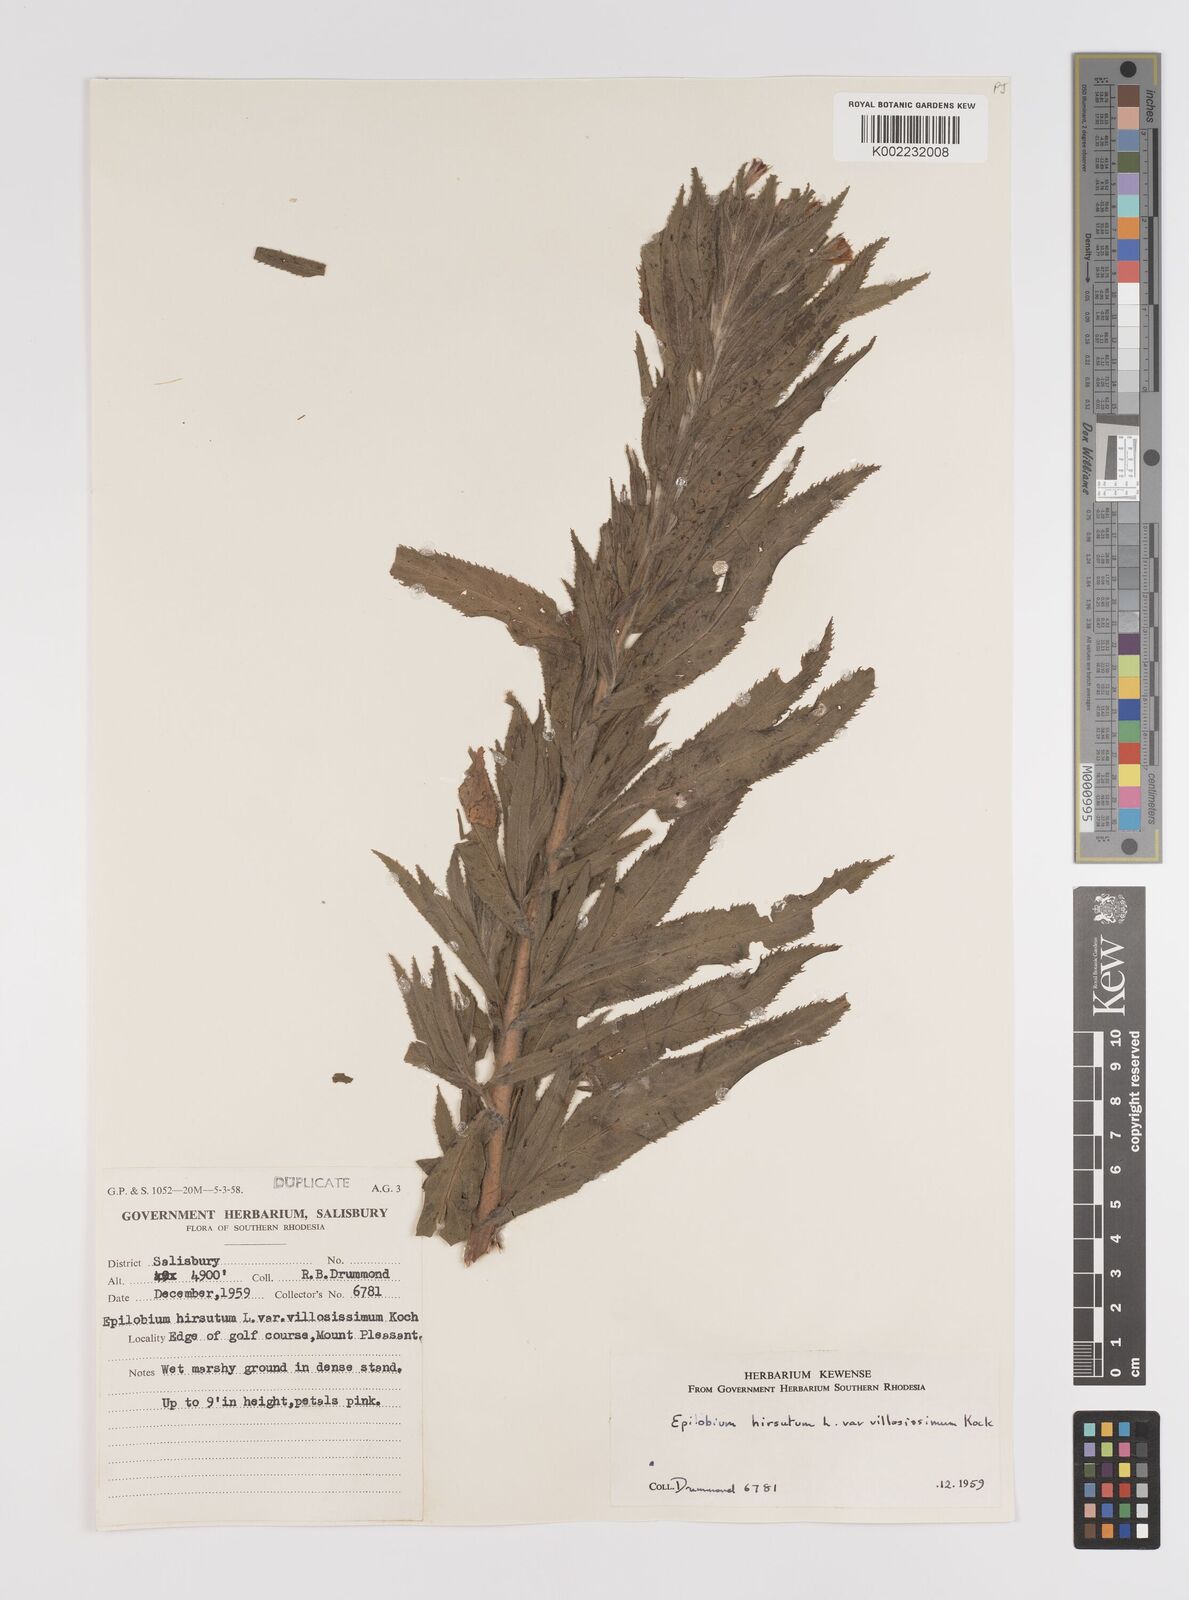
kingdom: Plantae
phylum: Tracheophyta
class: Magnoliopsida
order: Myrtales
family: Onagraceae
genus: Epilobium
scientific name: Epilobium hirsutum
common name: Great willowherb
